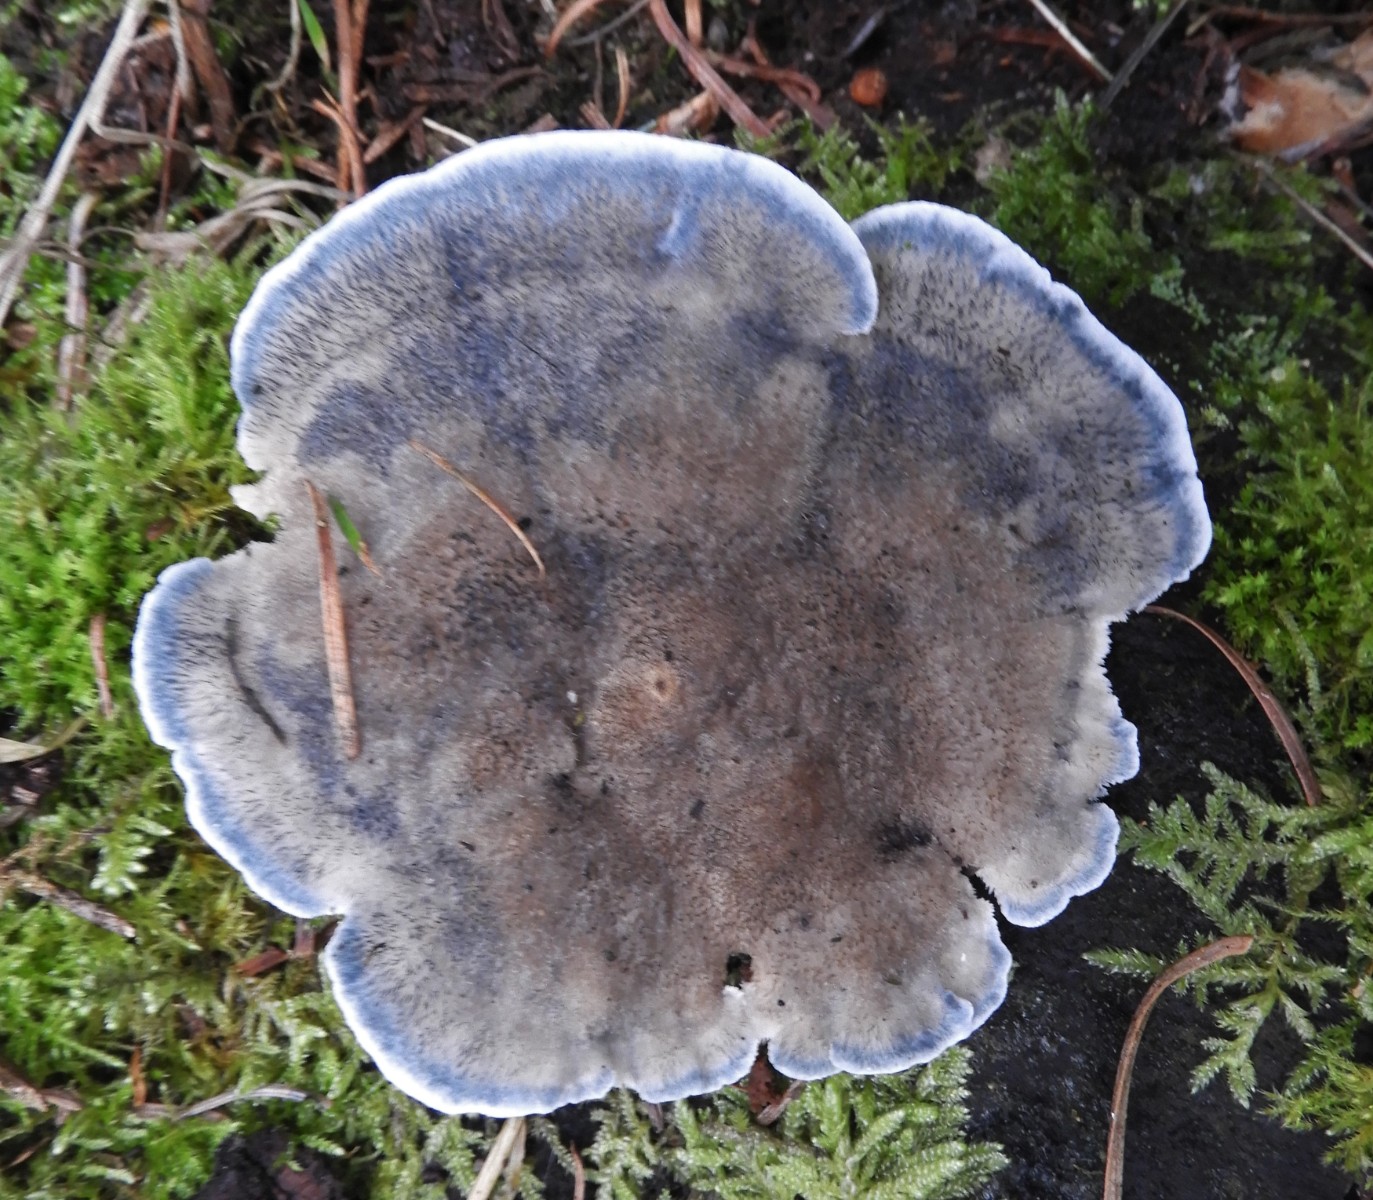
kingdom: Fungi
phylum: Basidiomycota
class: Agaricomycetes
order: Polyporales
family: Polyporaceae
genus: Cyanosporus
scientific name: Cyanosporus caesius
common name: blålig kødporesvamp
